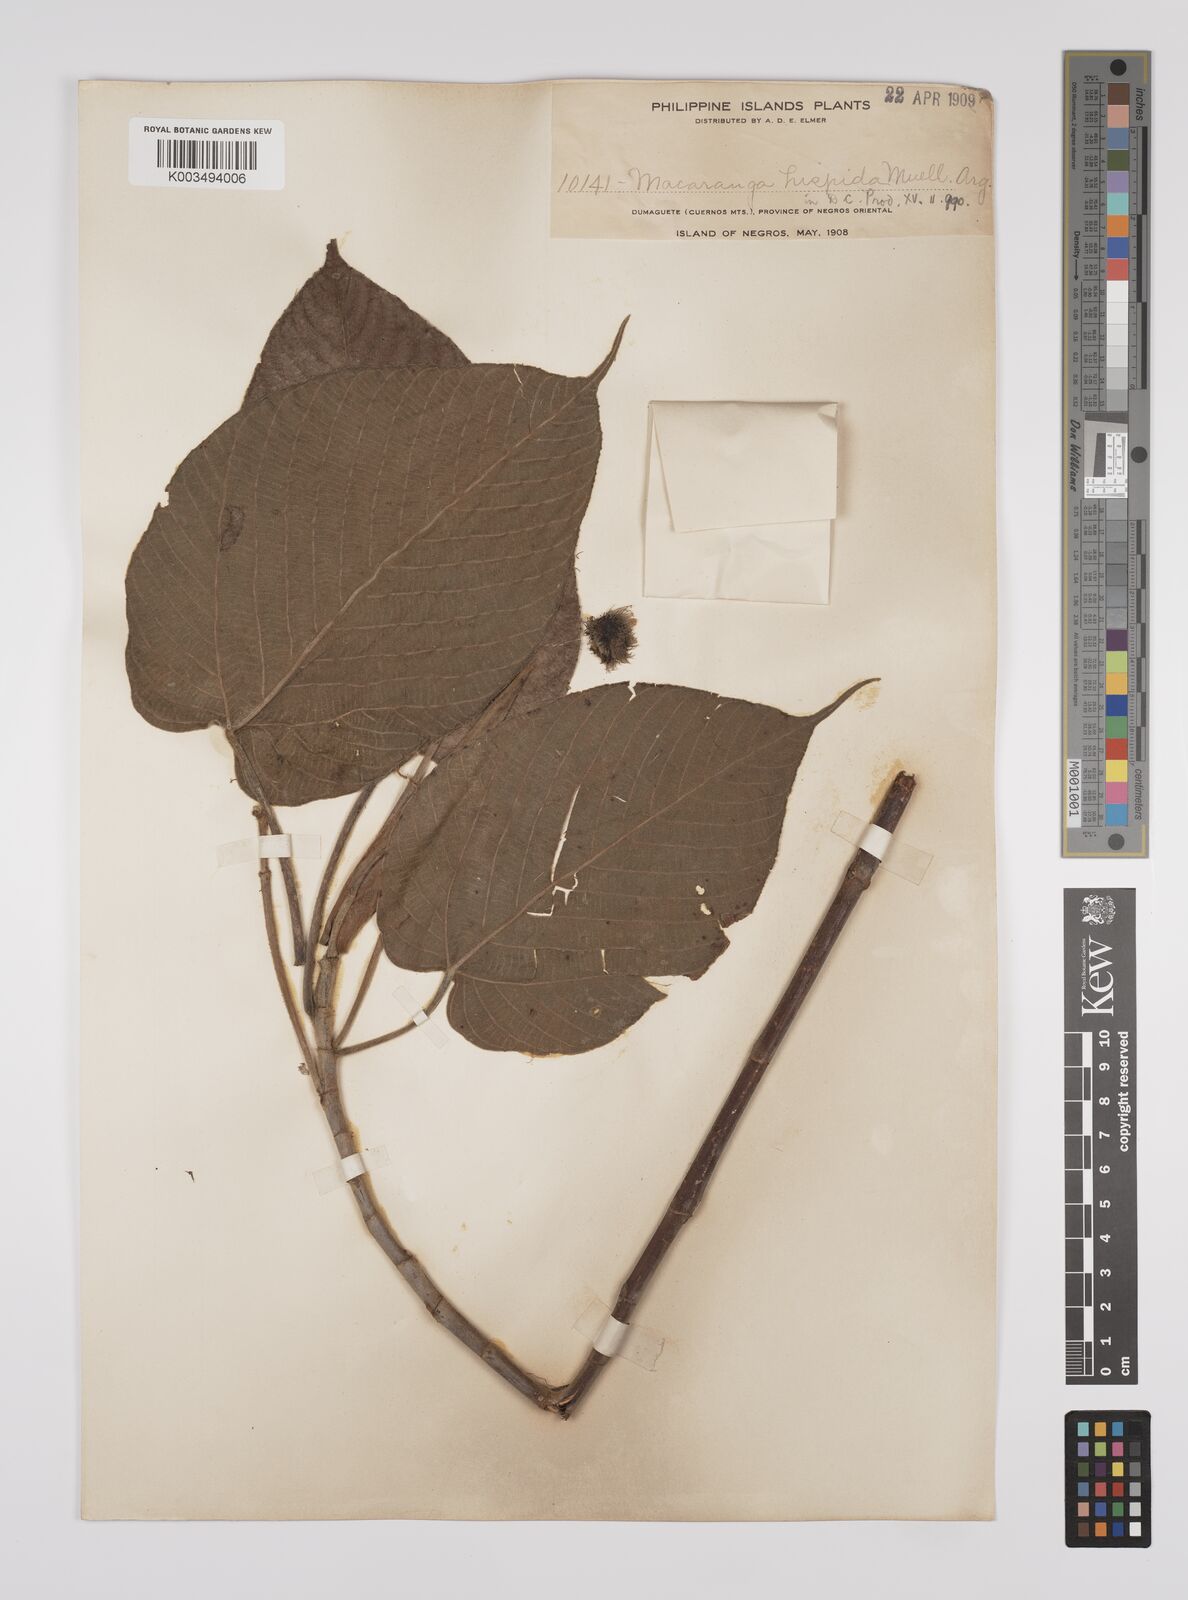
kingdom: Plantae
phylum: Tracheophyta
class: Magnoliopsida
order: Malpighiales
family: Euphorbiaceae
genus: Macaranga
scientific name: Macaranga hispida
